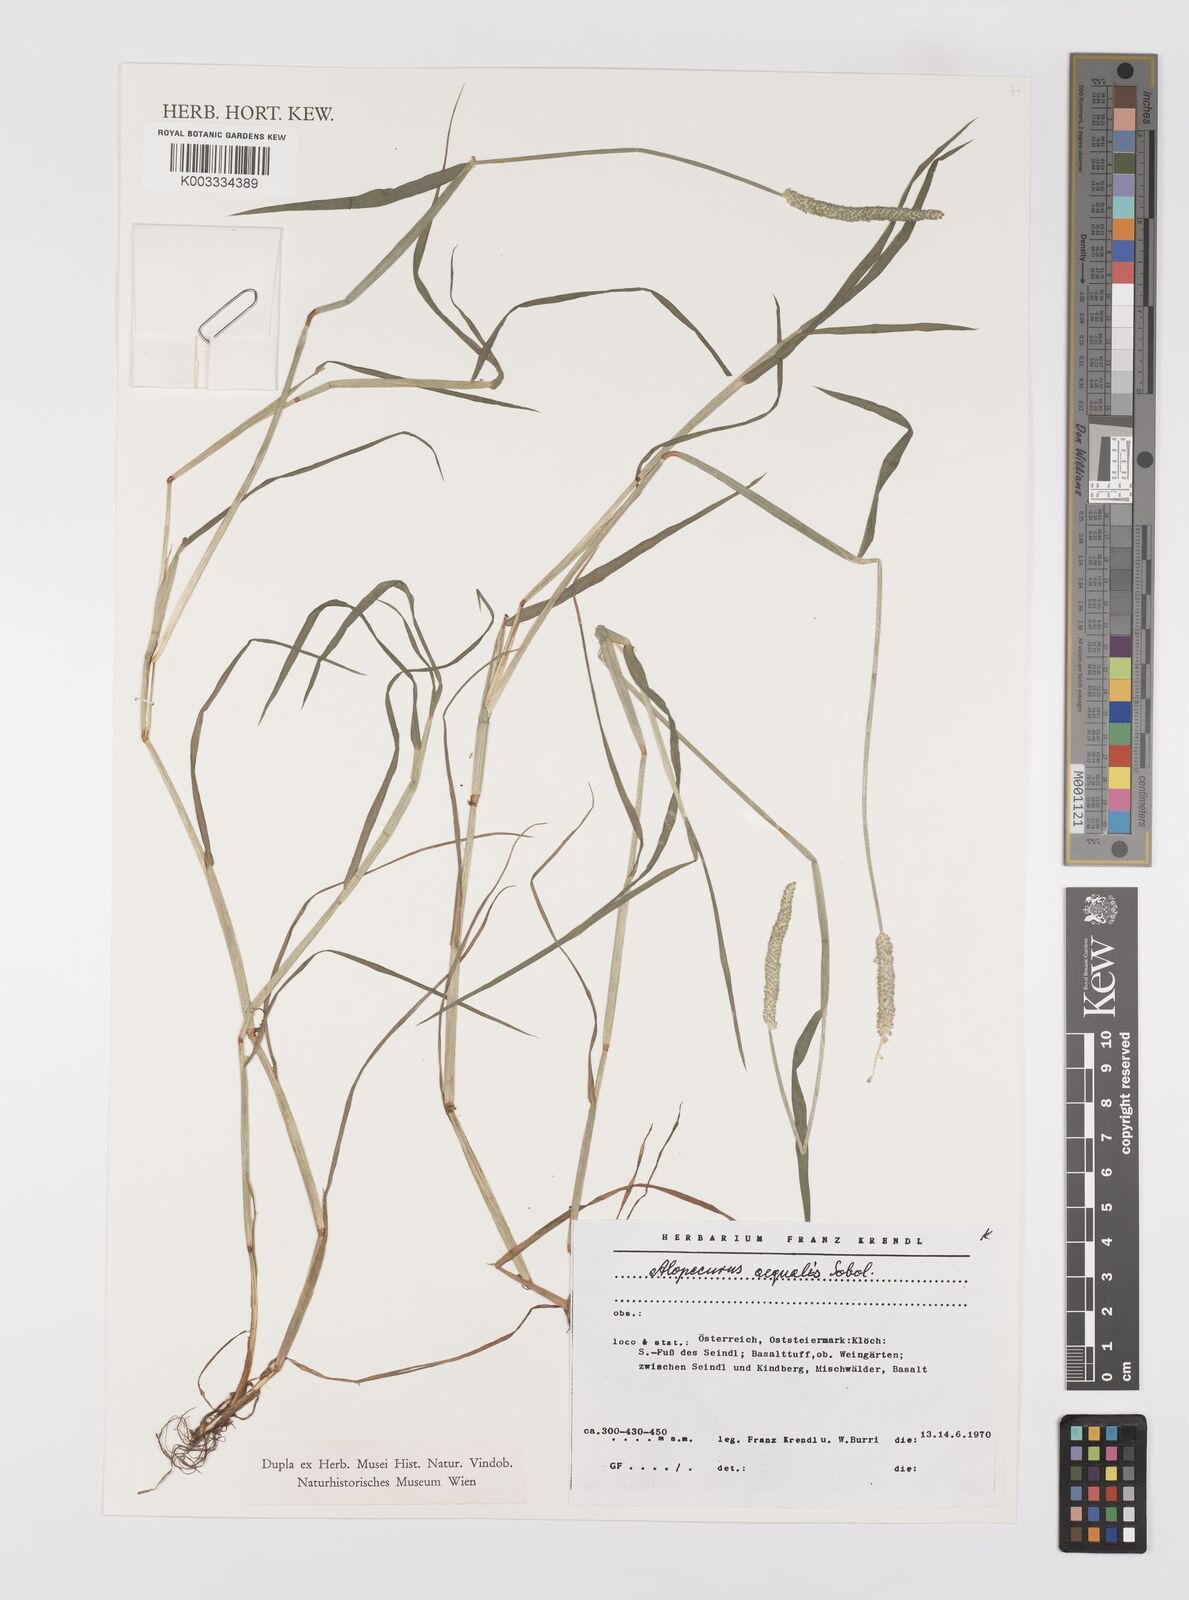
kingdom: Plantae
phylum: Tracheophyta
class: Liliopsida
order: Poales
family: Poaceae
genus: Alopecurus
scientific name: Alopecurus aequalis
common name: Orange foxtail
